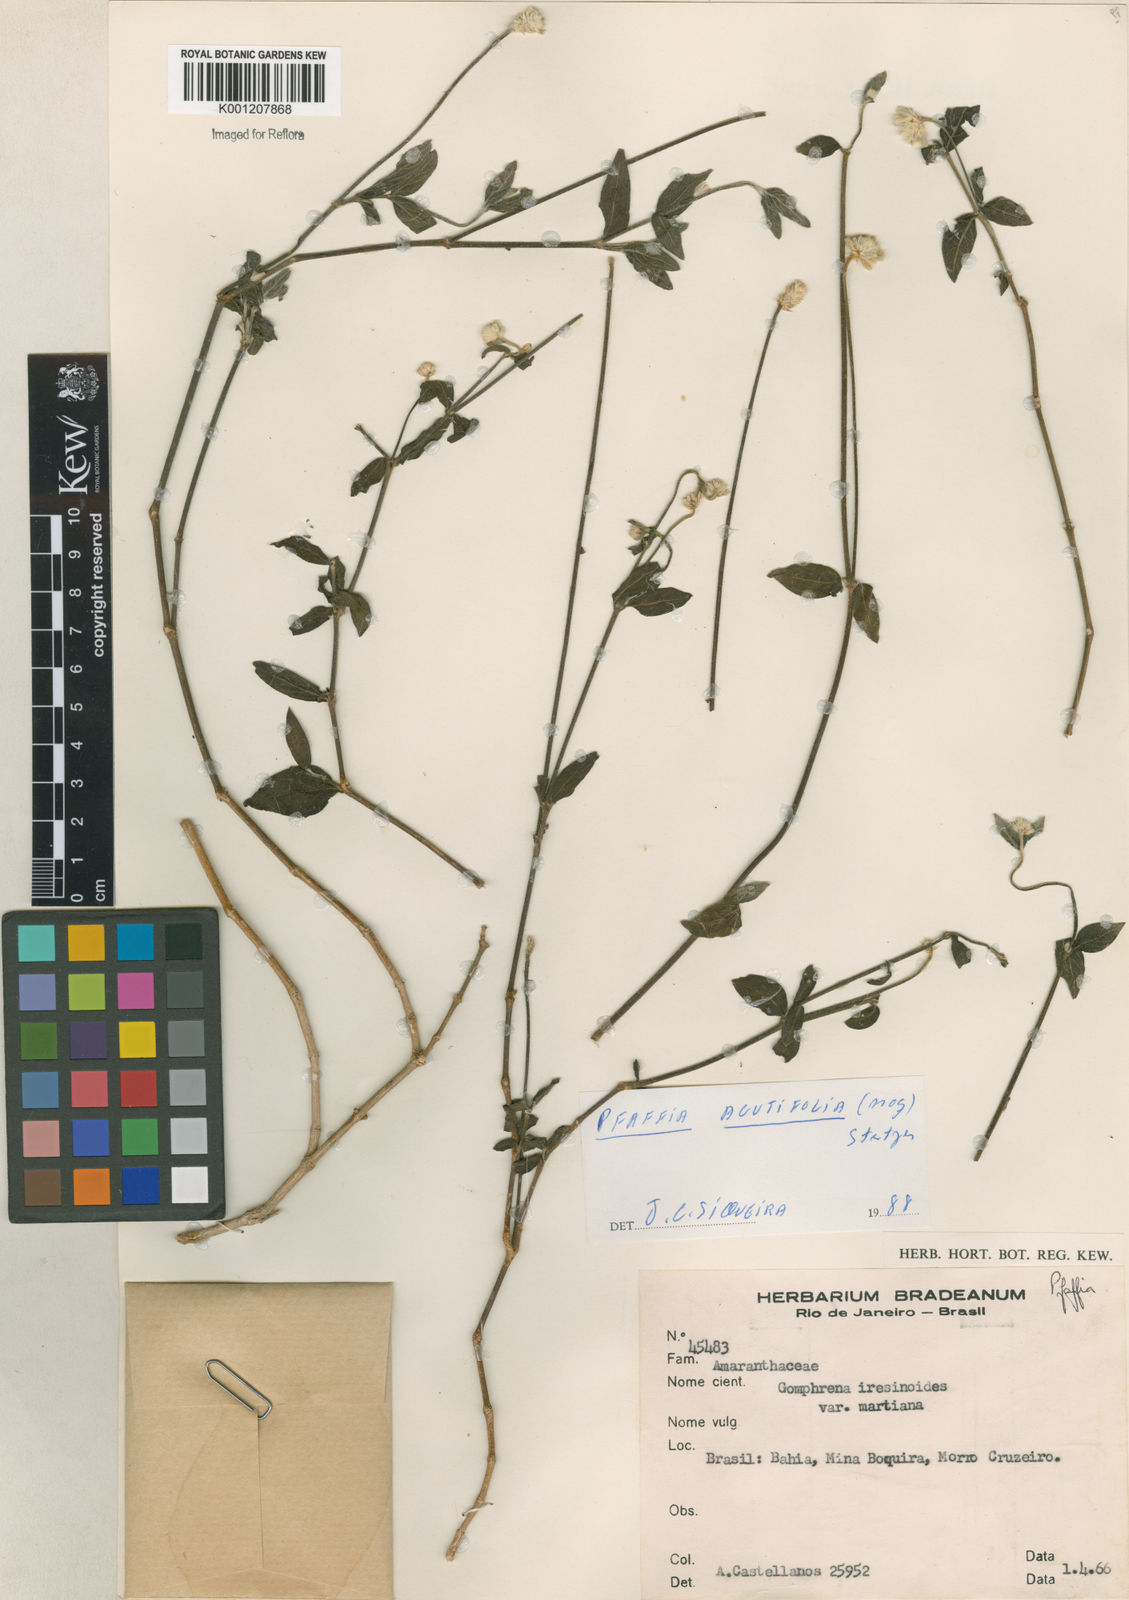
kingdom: Plantae
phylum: Tracheophyta
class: Magnoliopsida
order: Caryophyllales
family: Amaranthaceae
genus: Pfaffia
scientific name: Pfaffia
